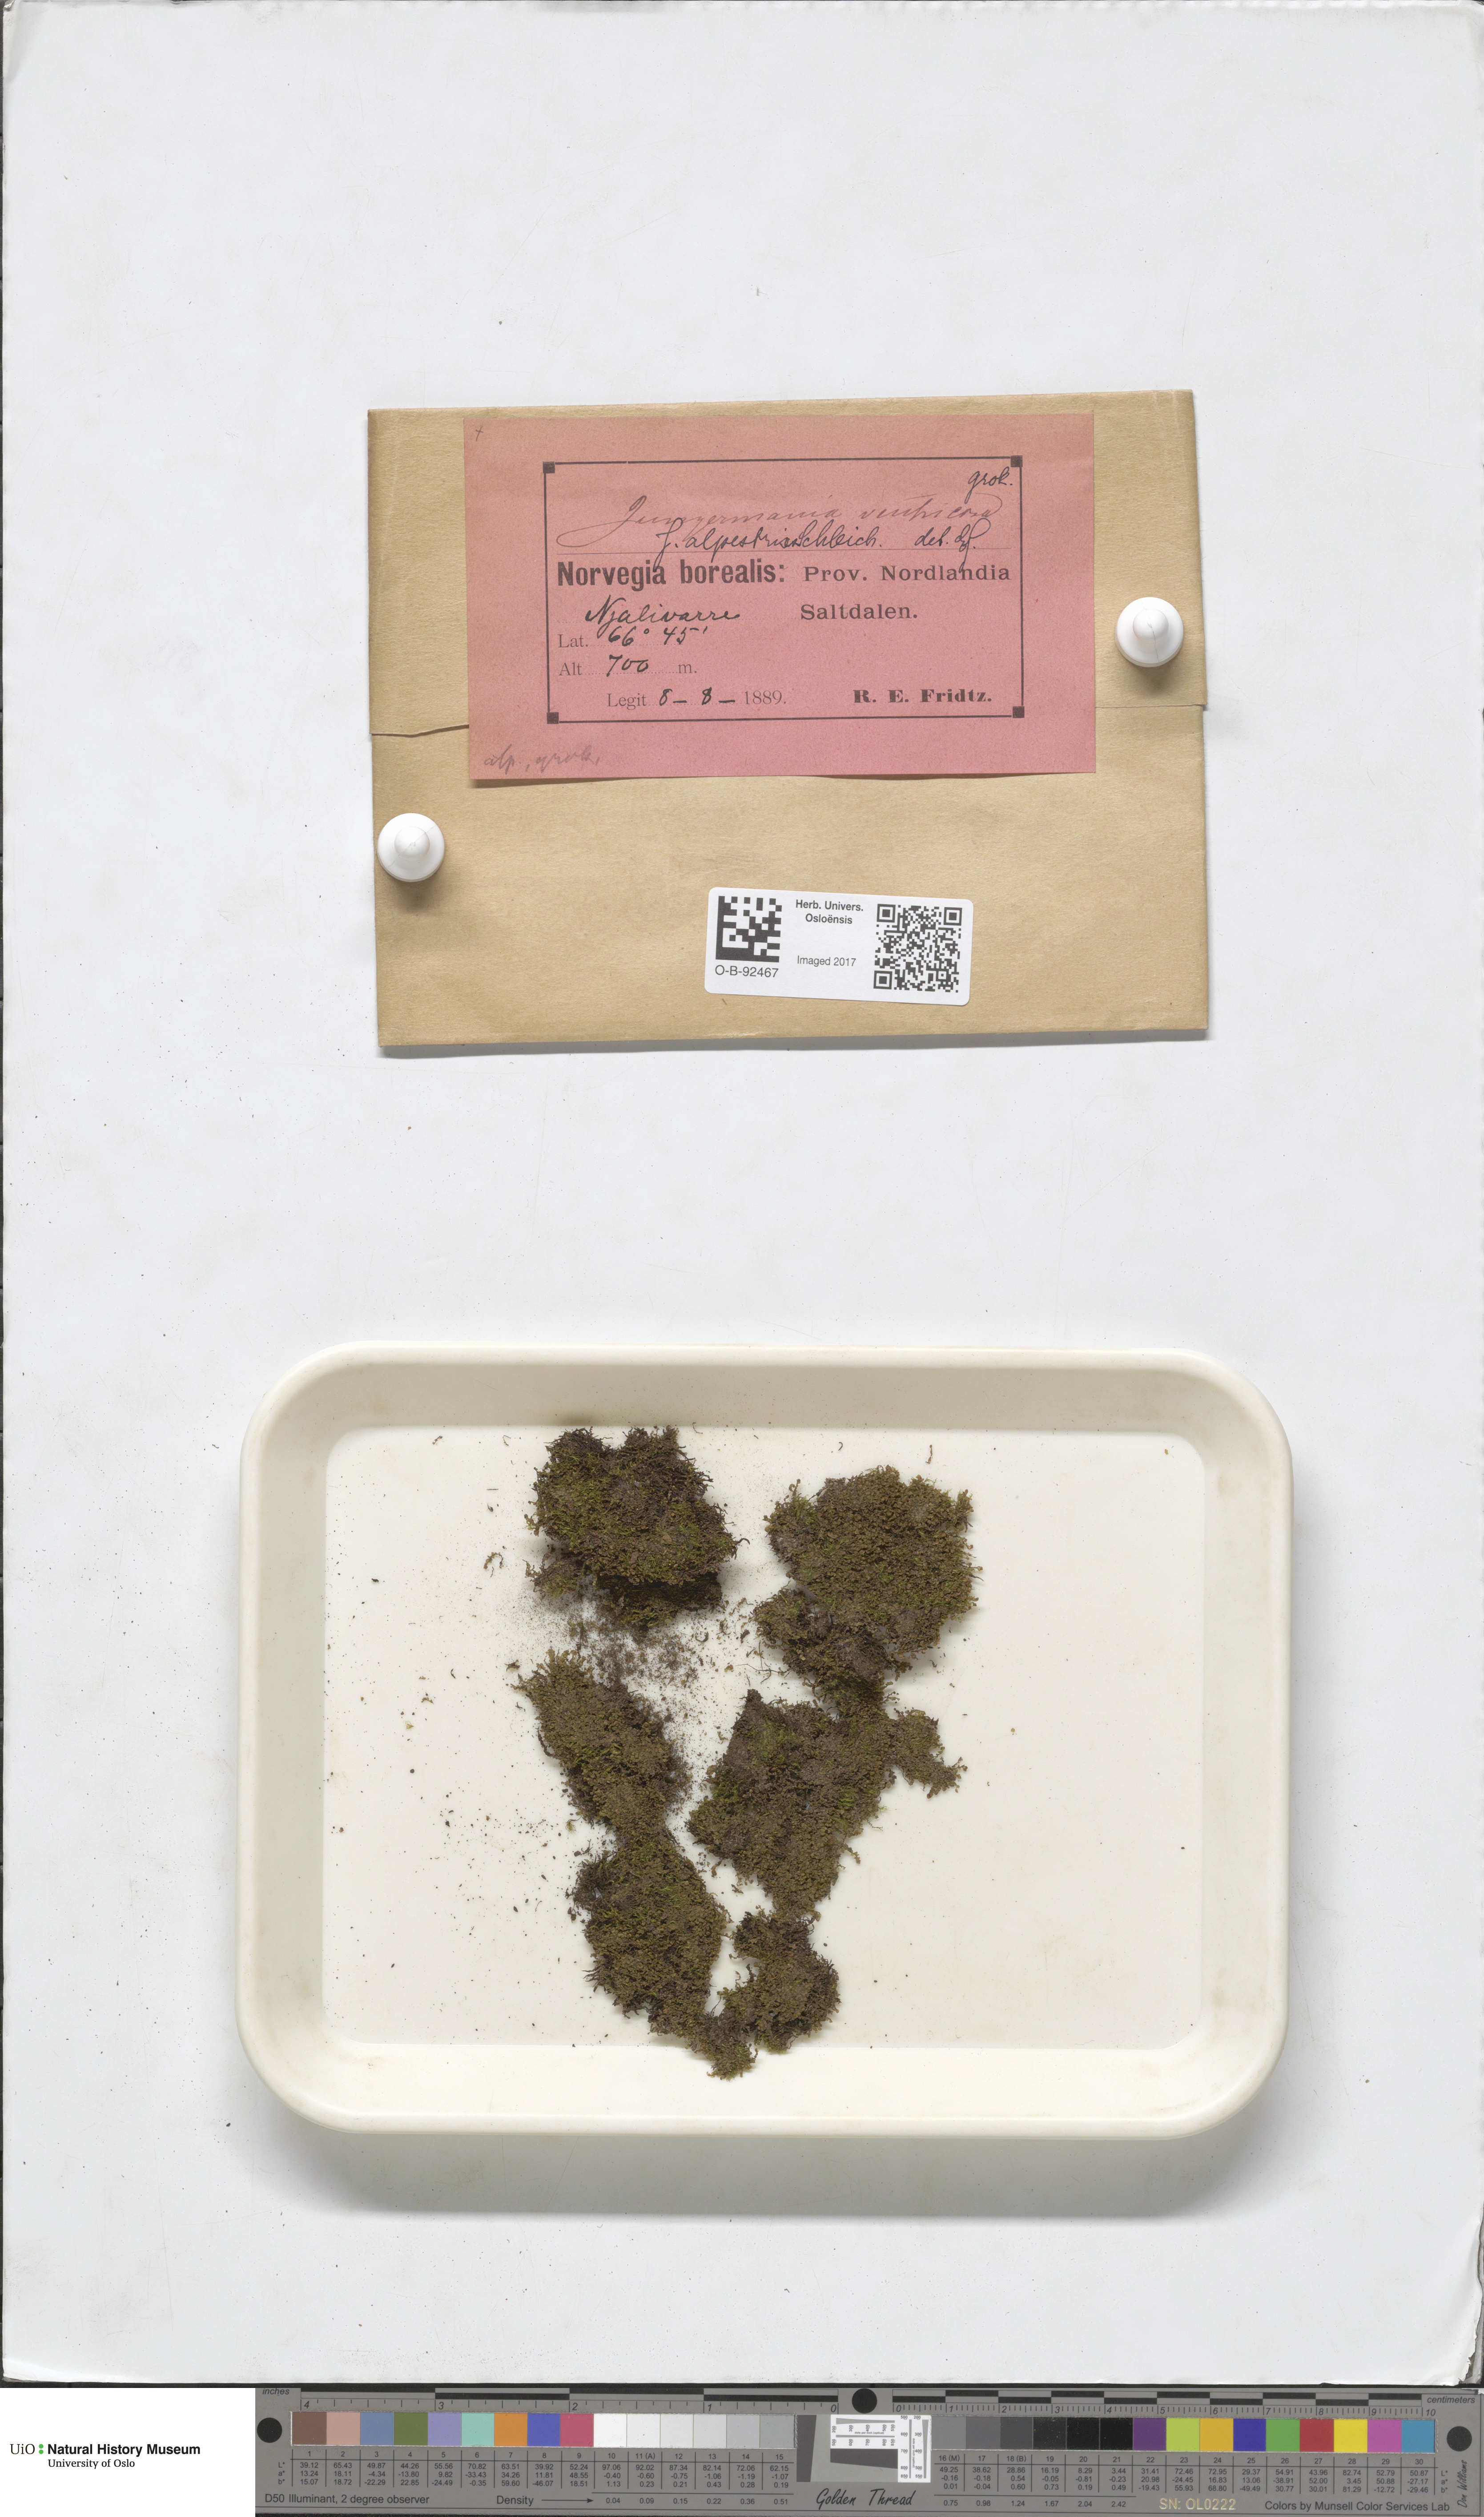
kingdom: Plantae
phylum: Marchantiophyta
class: Jungermanniopsida
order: Jungermanniales
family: Anastrophyllaceae
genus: Barbilophozia
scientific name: Barbilophozia sudetica
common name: Hill notchwort
